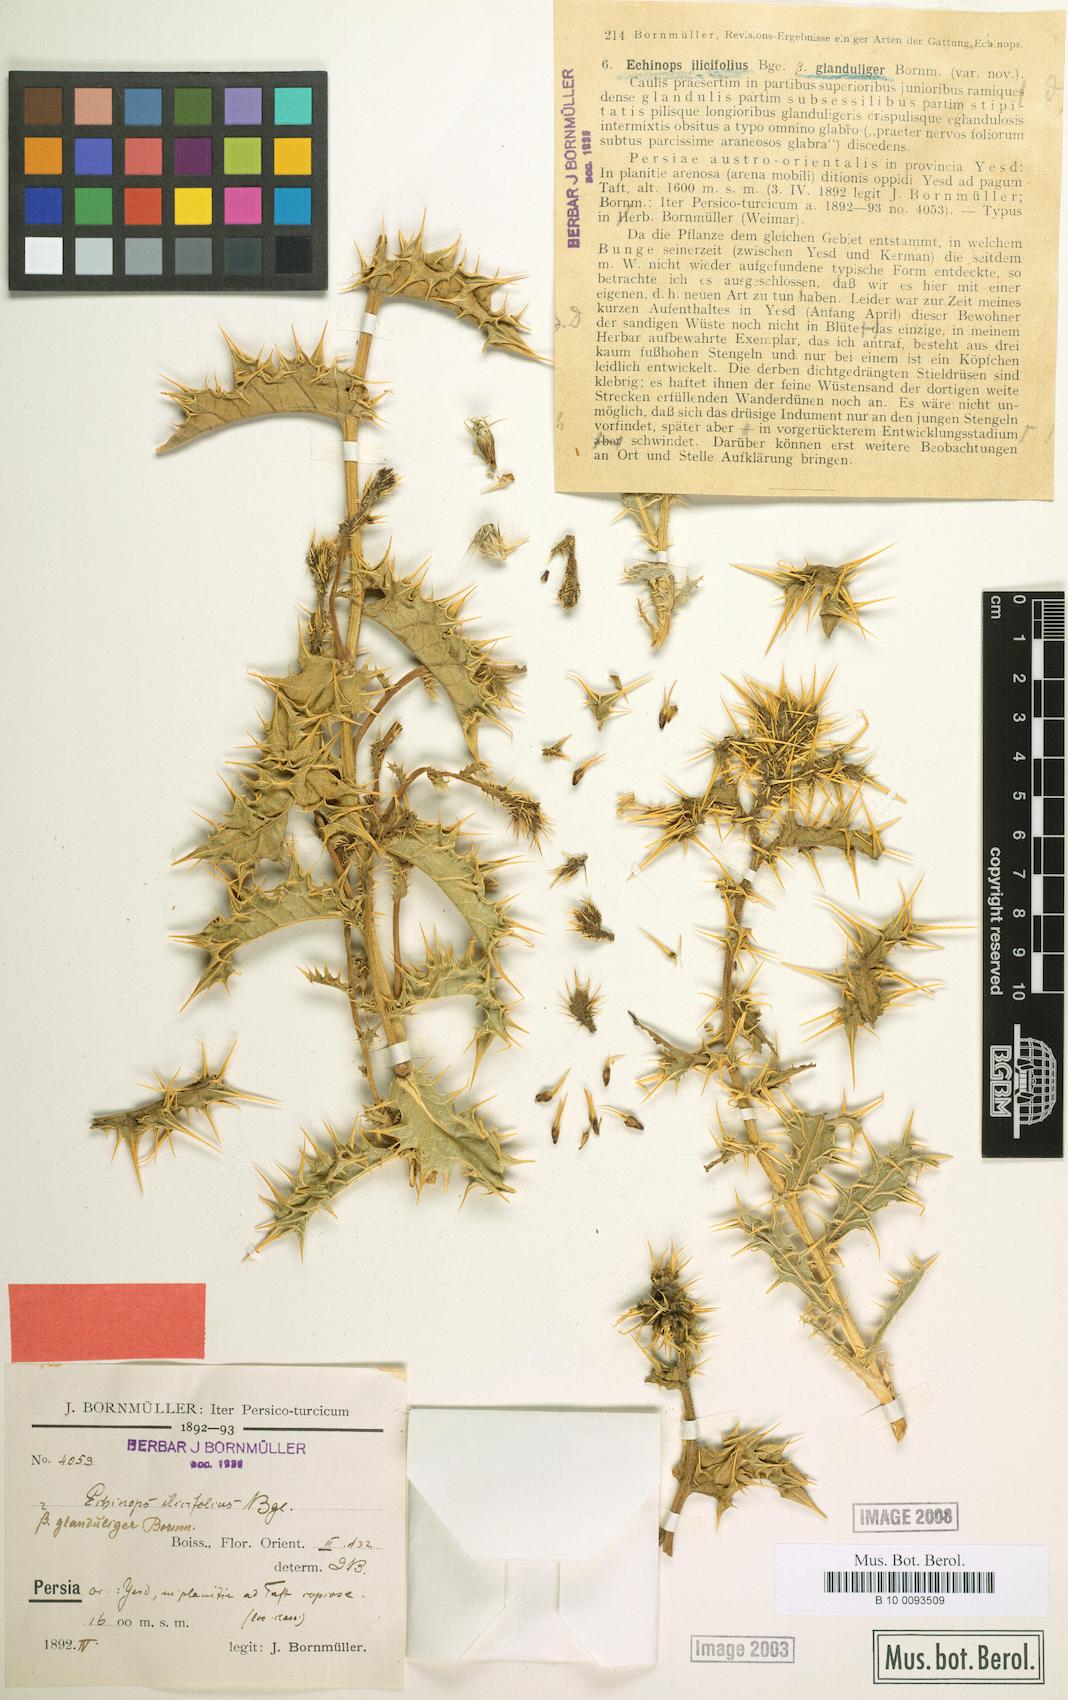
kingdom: Plantae
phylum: Tracheophyta
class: Magnoliopsida
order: Asterales
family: Asteraceae
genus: Echinops
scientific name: Echinops illicifolius
